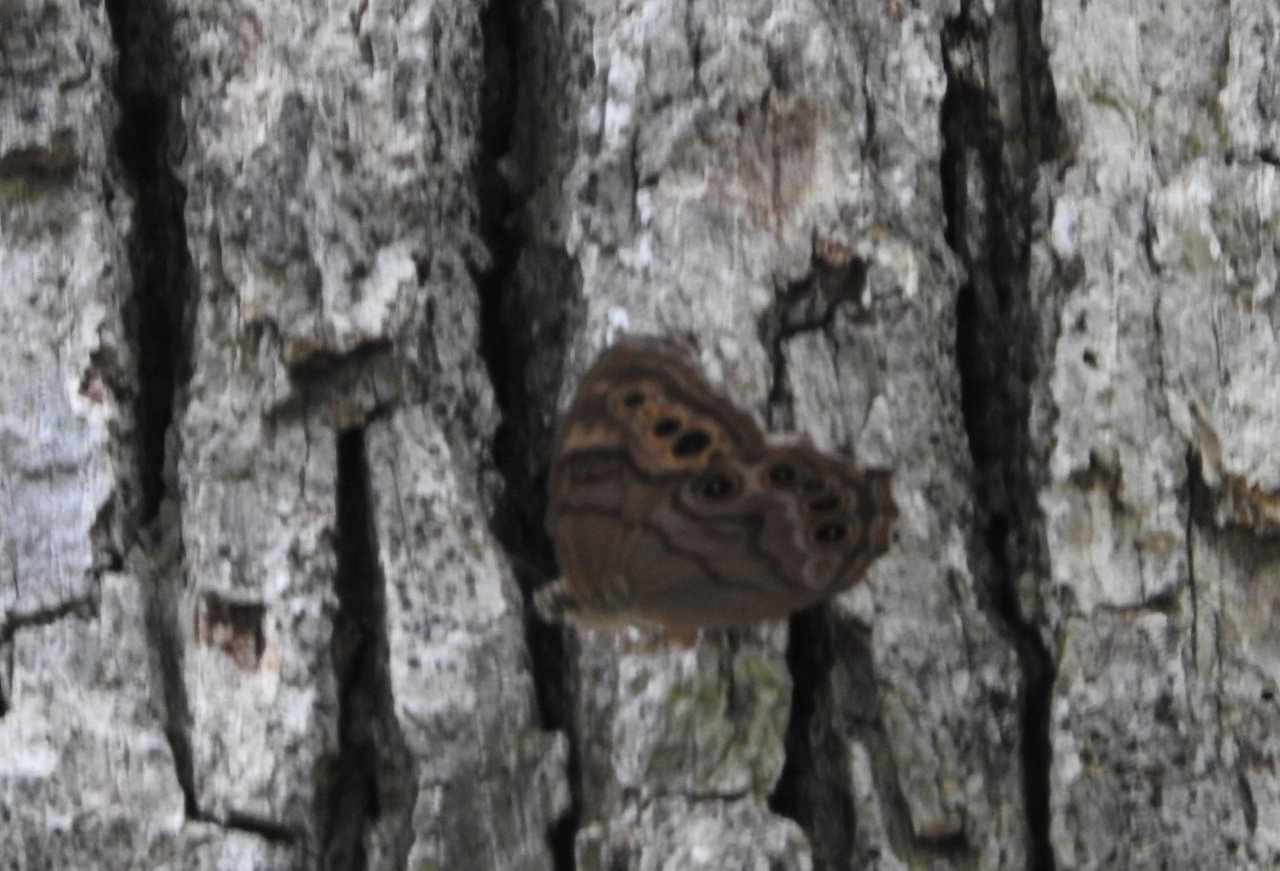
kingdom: Animalia
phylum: Arthropoda
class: Insecta
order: Lepidoptera
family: Nymphalidae
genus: Lethe
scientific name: Lethe anthedon
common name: Northern Pearly-Eye
